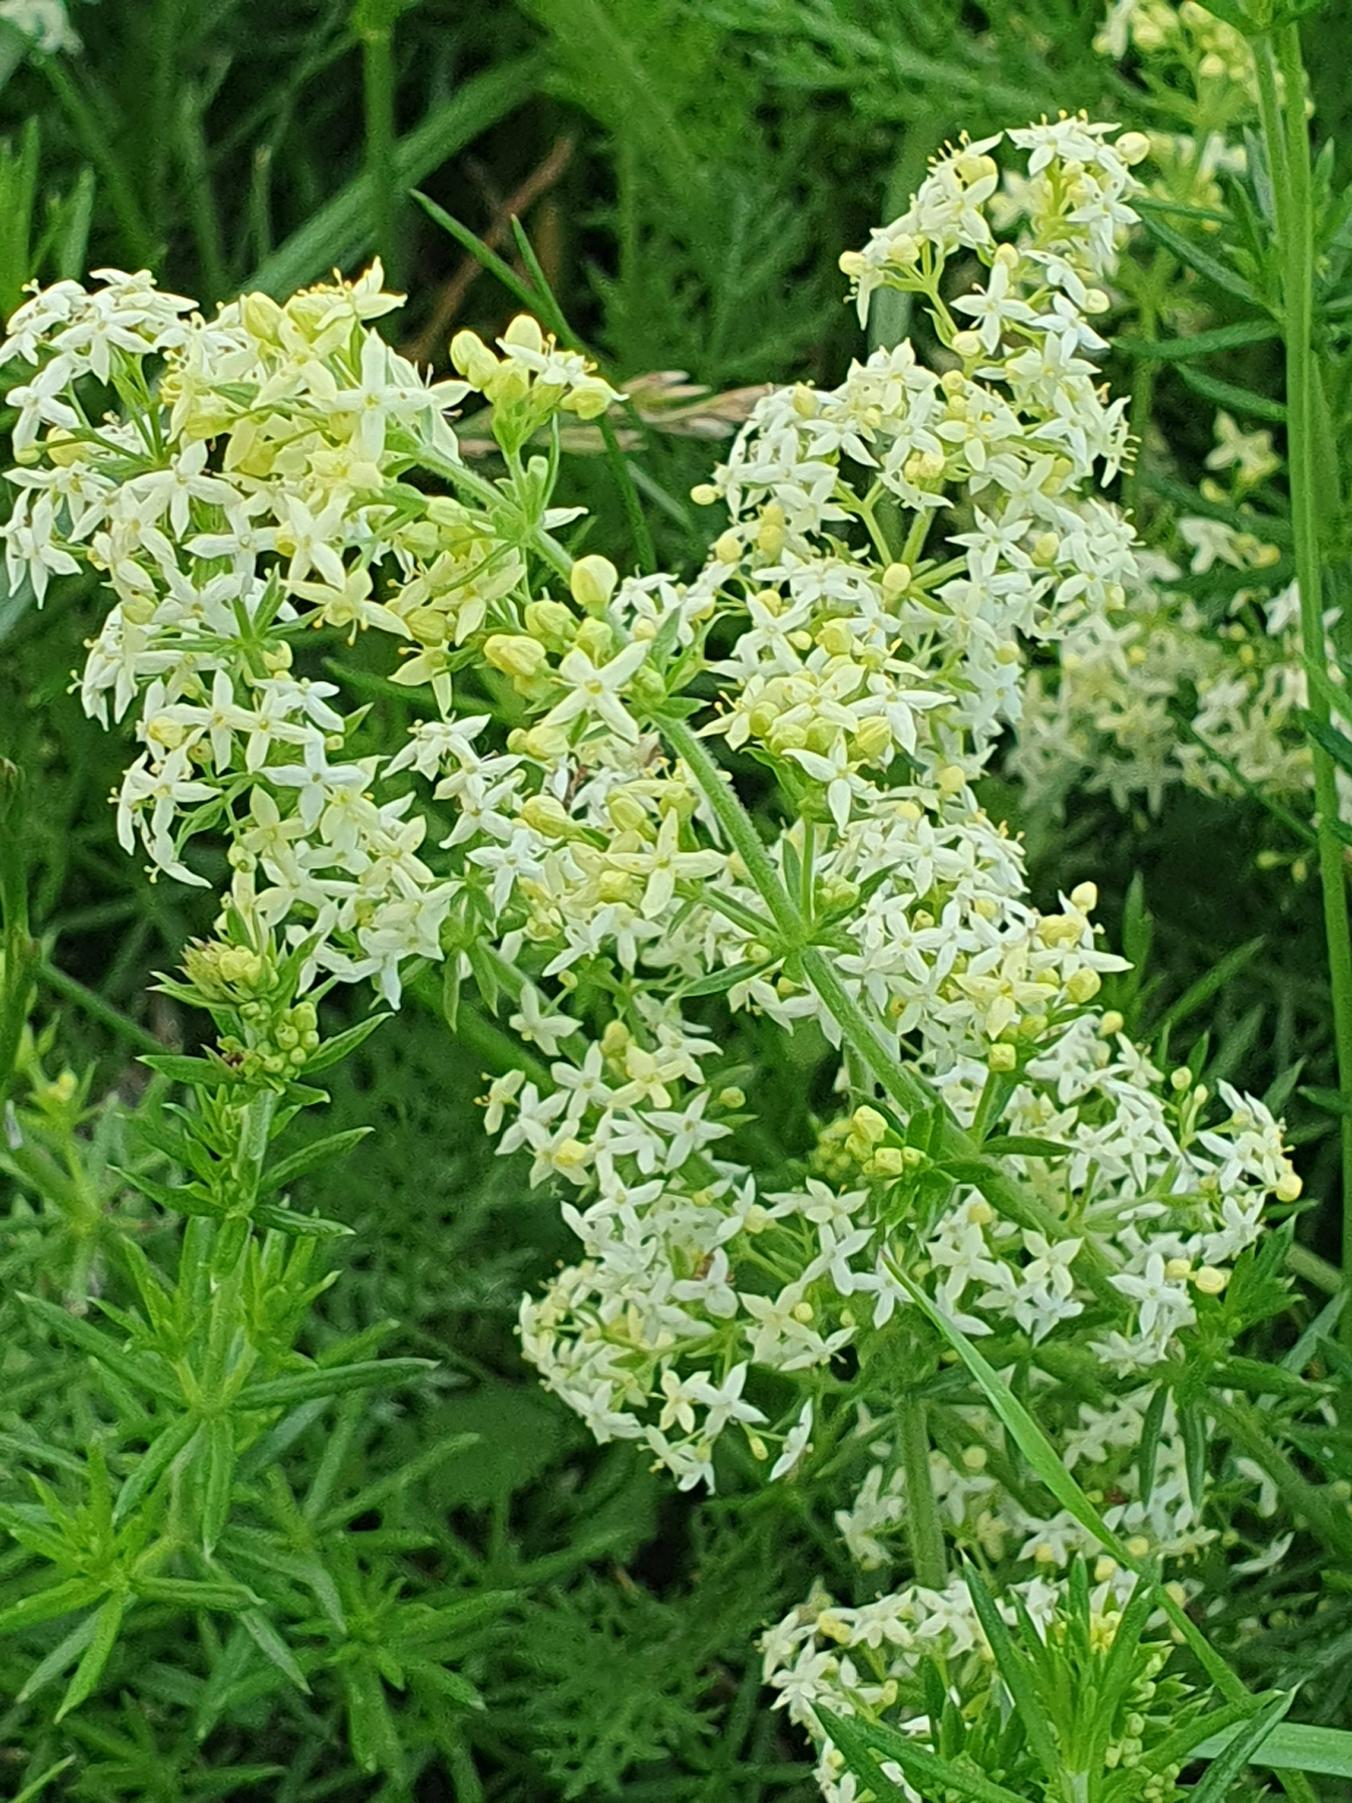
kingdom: Plantae
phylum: Tracheophyta
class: Magnoliopsida
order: Gentianales
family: Rubiaceae
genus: Galium
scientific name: Galium mollugo
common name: Hvid snerre
